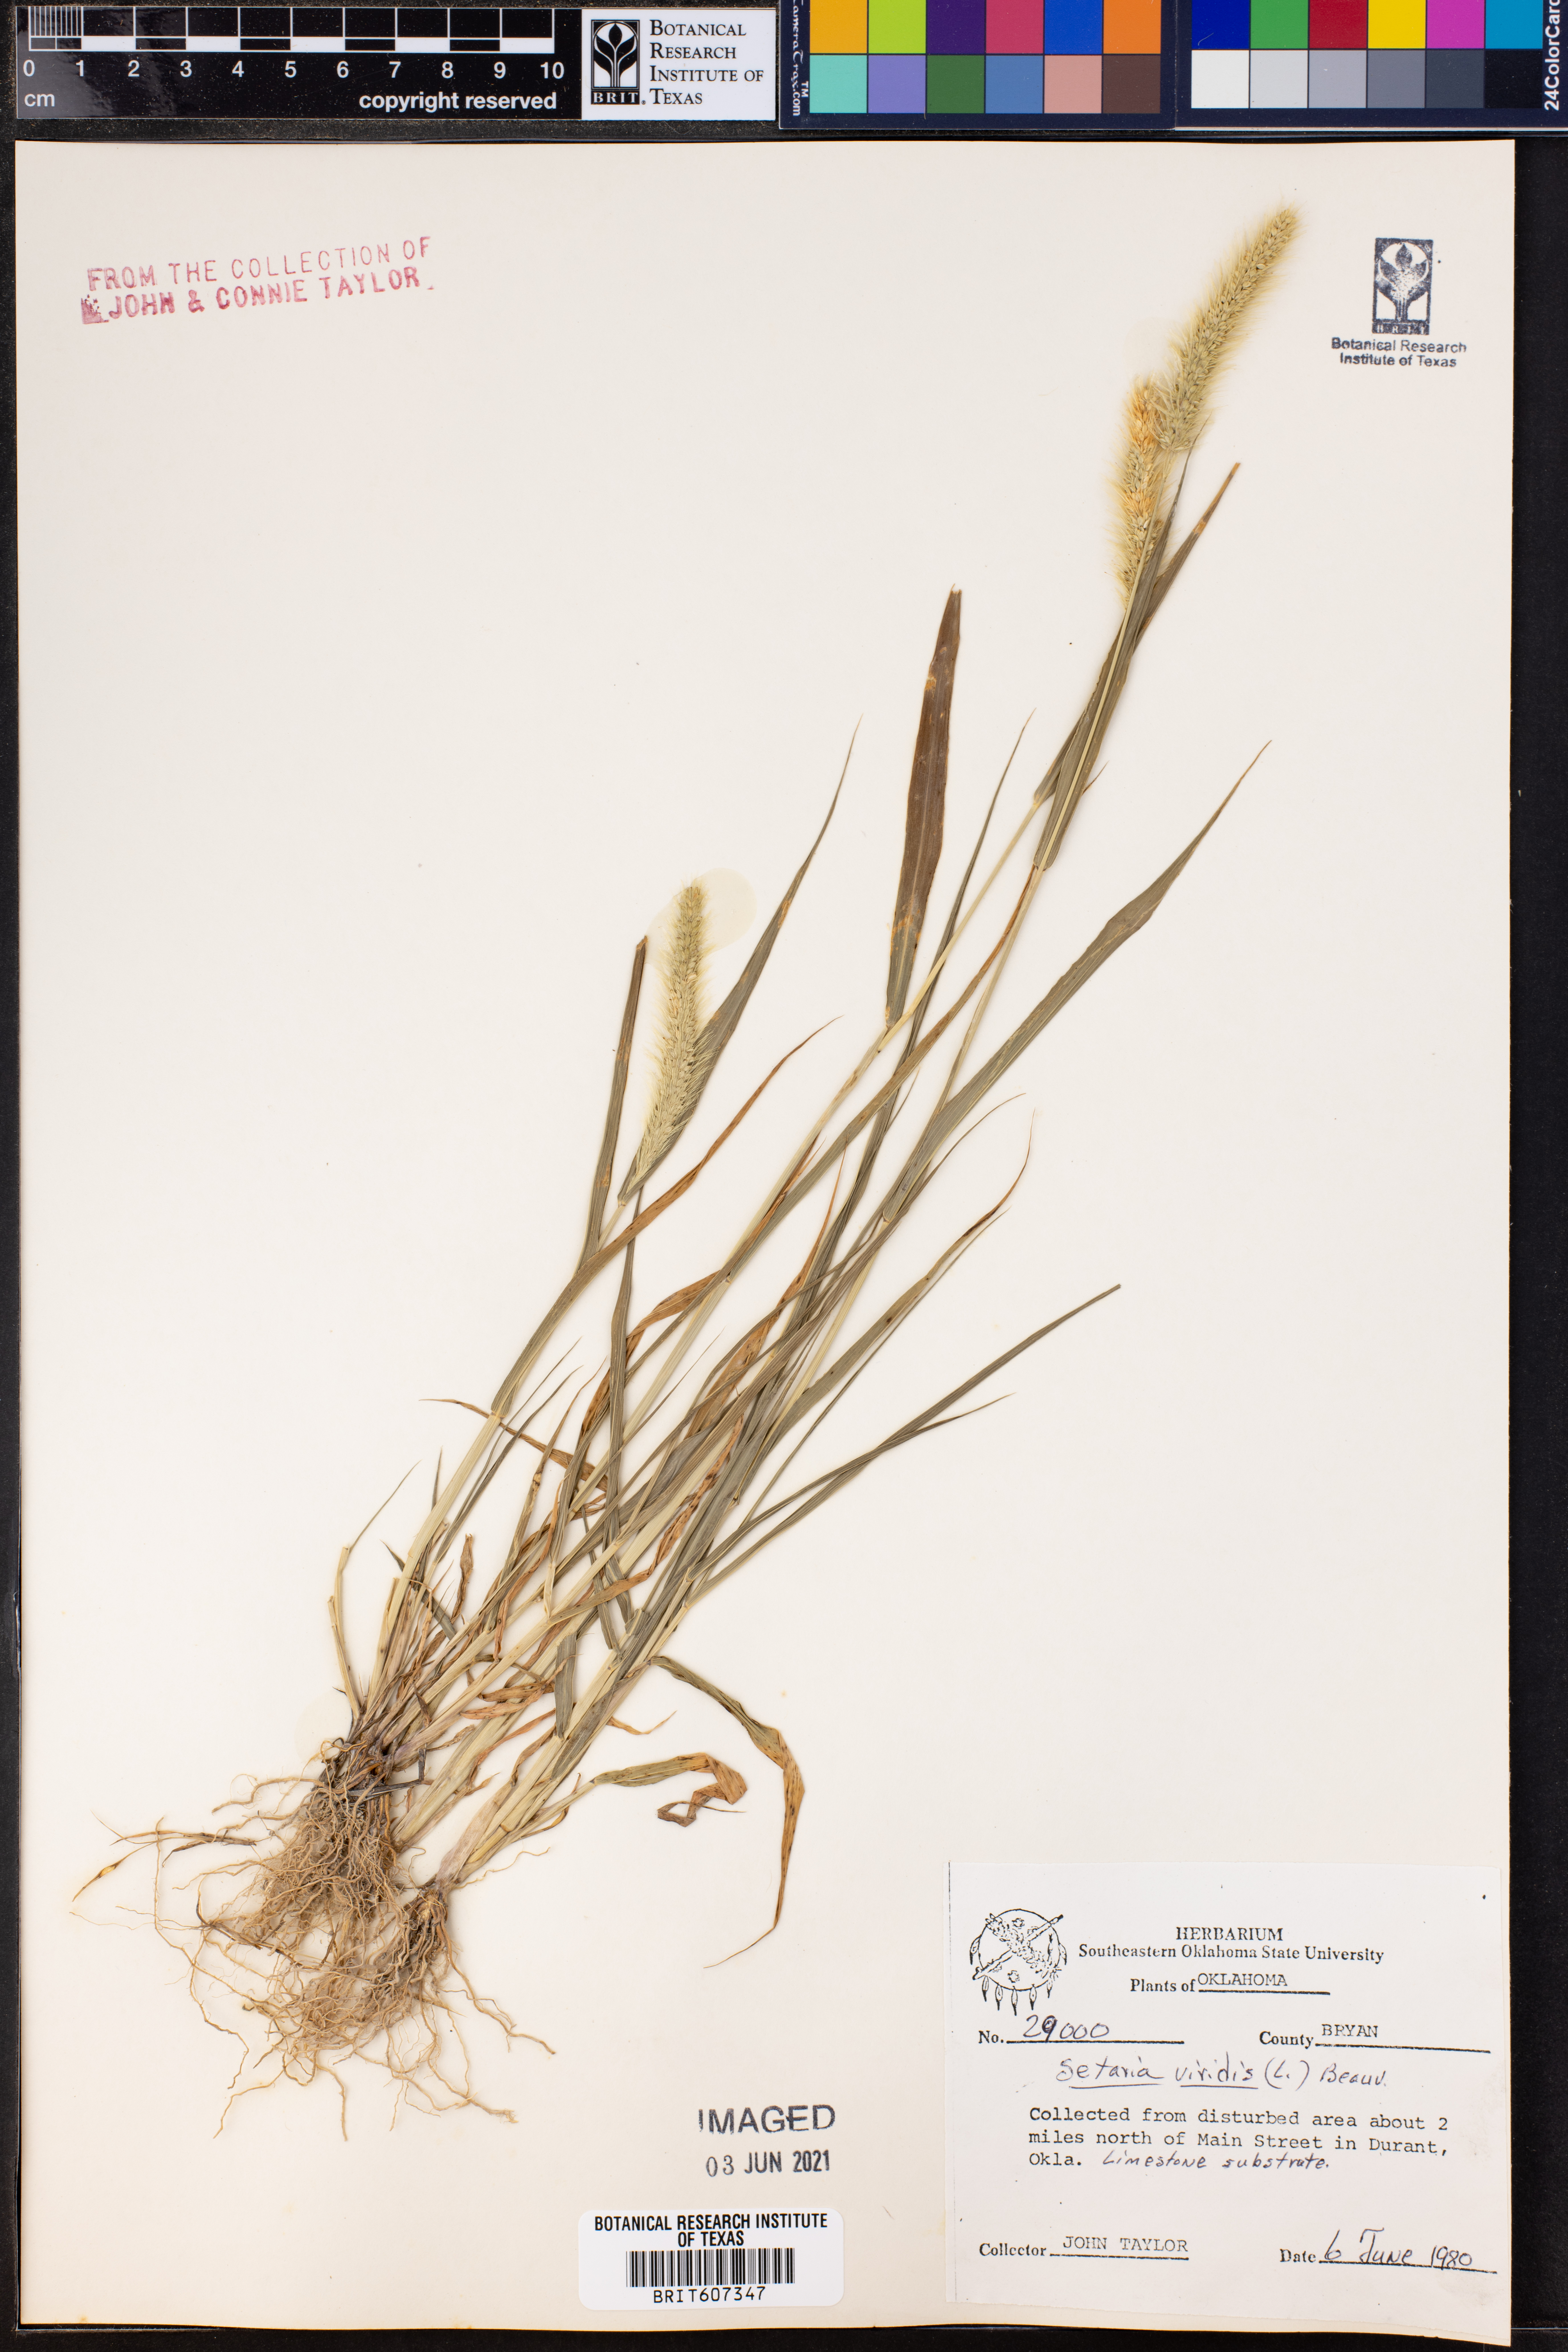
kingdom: Plantae
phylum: Tracheophyta
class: Liliopsida
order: Poales
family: Poaceae
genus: Setaria
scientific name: Setaria viridis
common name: Green bristlegrass
